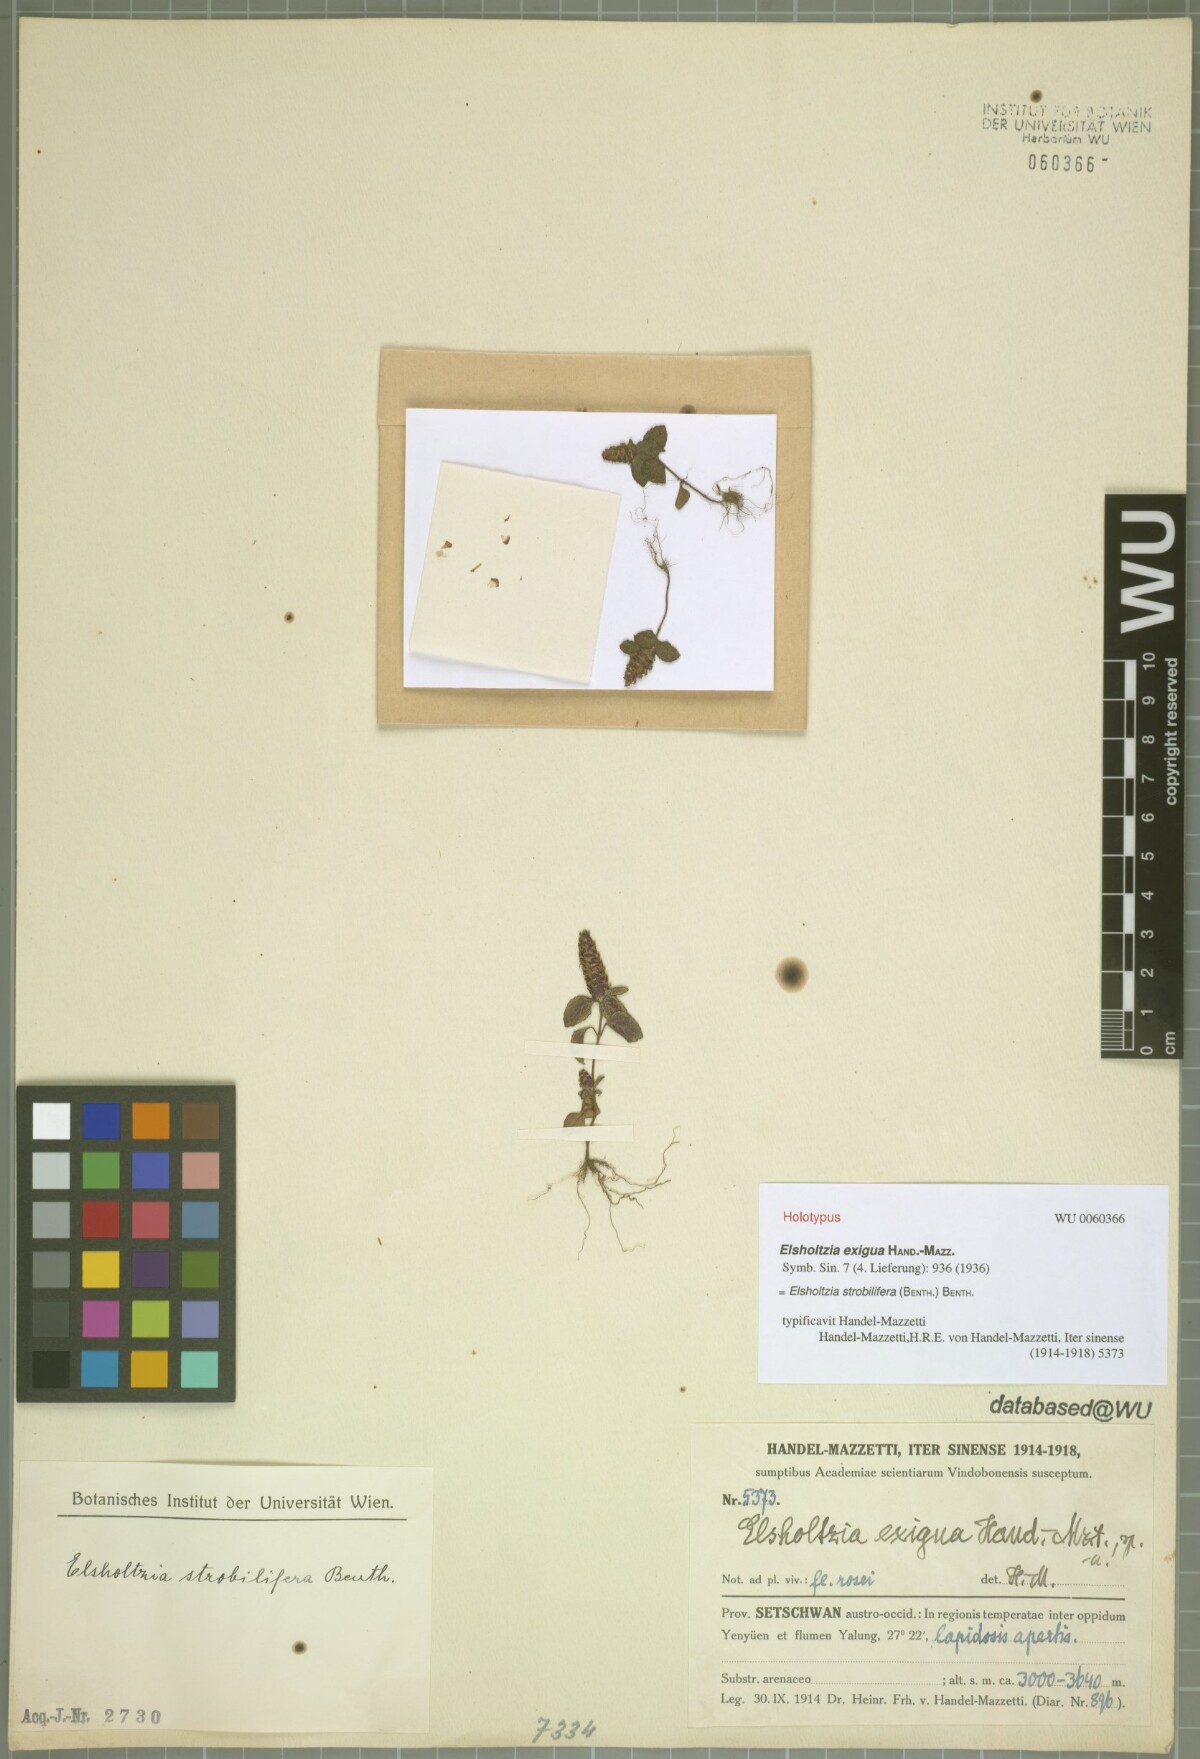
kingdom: Plantae
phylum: Tracheophyta
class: Magnoliopsida
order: Lamiales
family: Lamiaceae
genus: Elsholtzia
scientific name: Elsholtzia strobilifera
